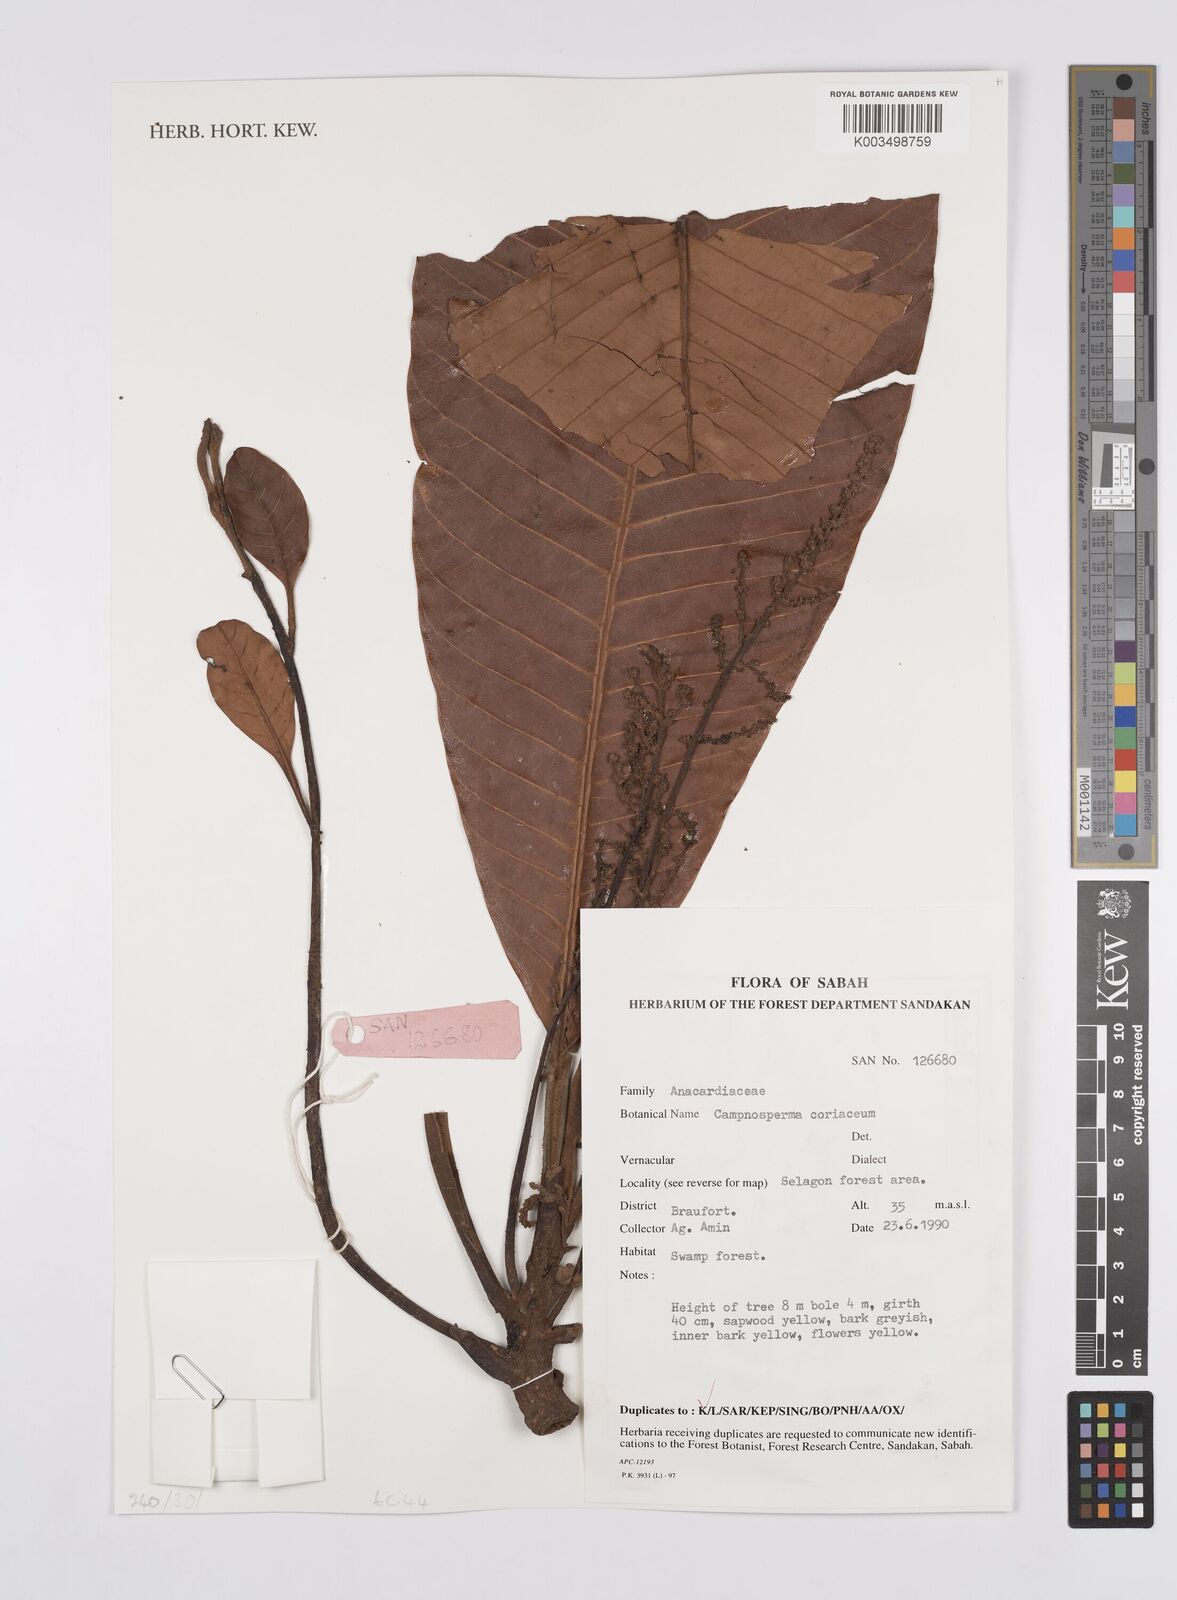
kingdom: Plantae
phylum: Tracheophyta
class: Magnoliopsida
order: Sapindales
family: Anacardiaceae
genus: Campnosperma
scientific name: Campnosperma coriaceum
